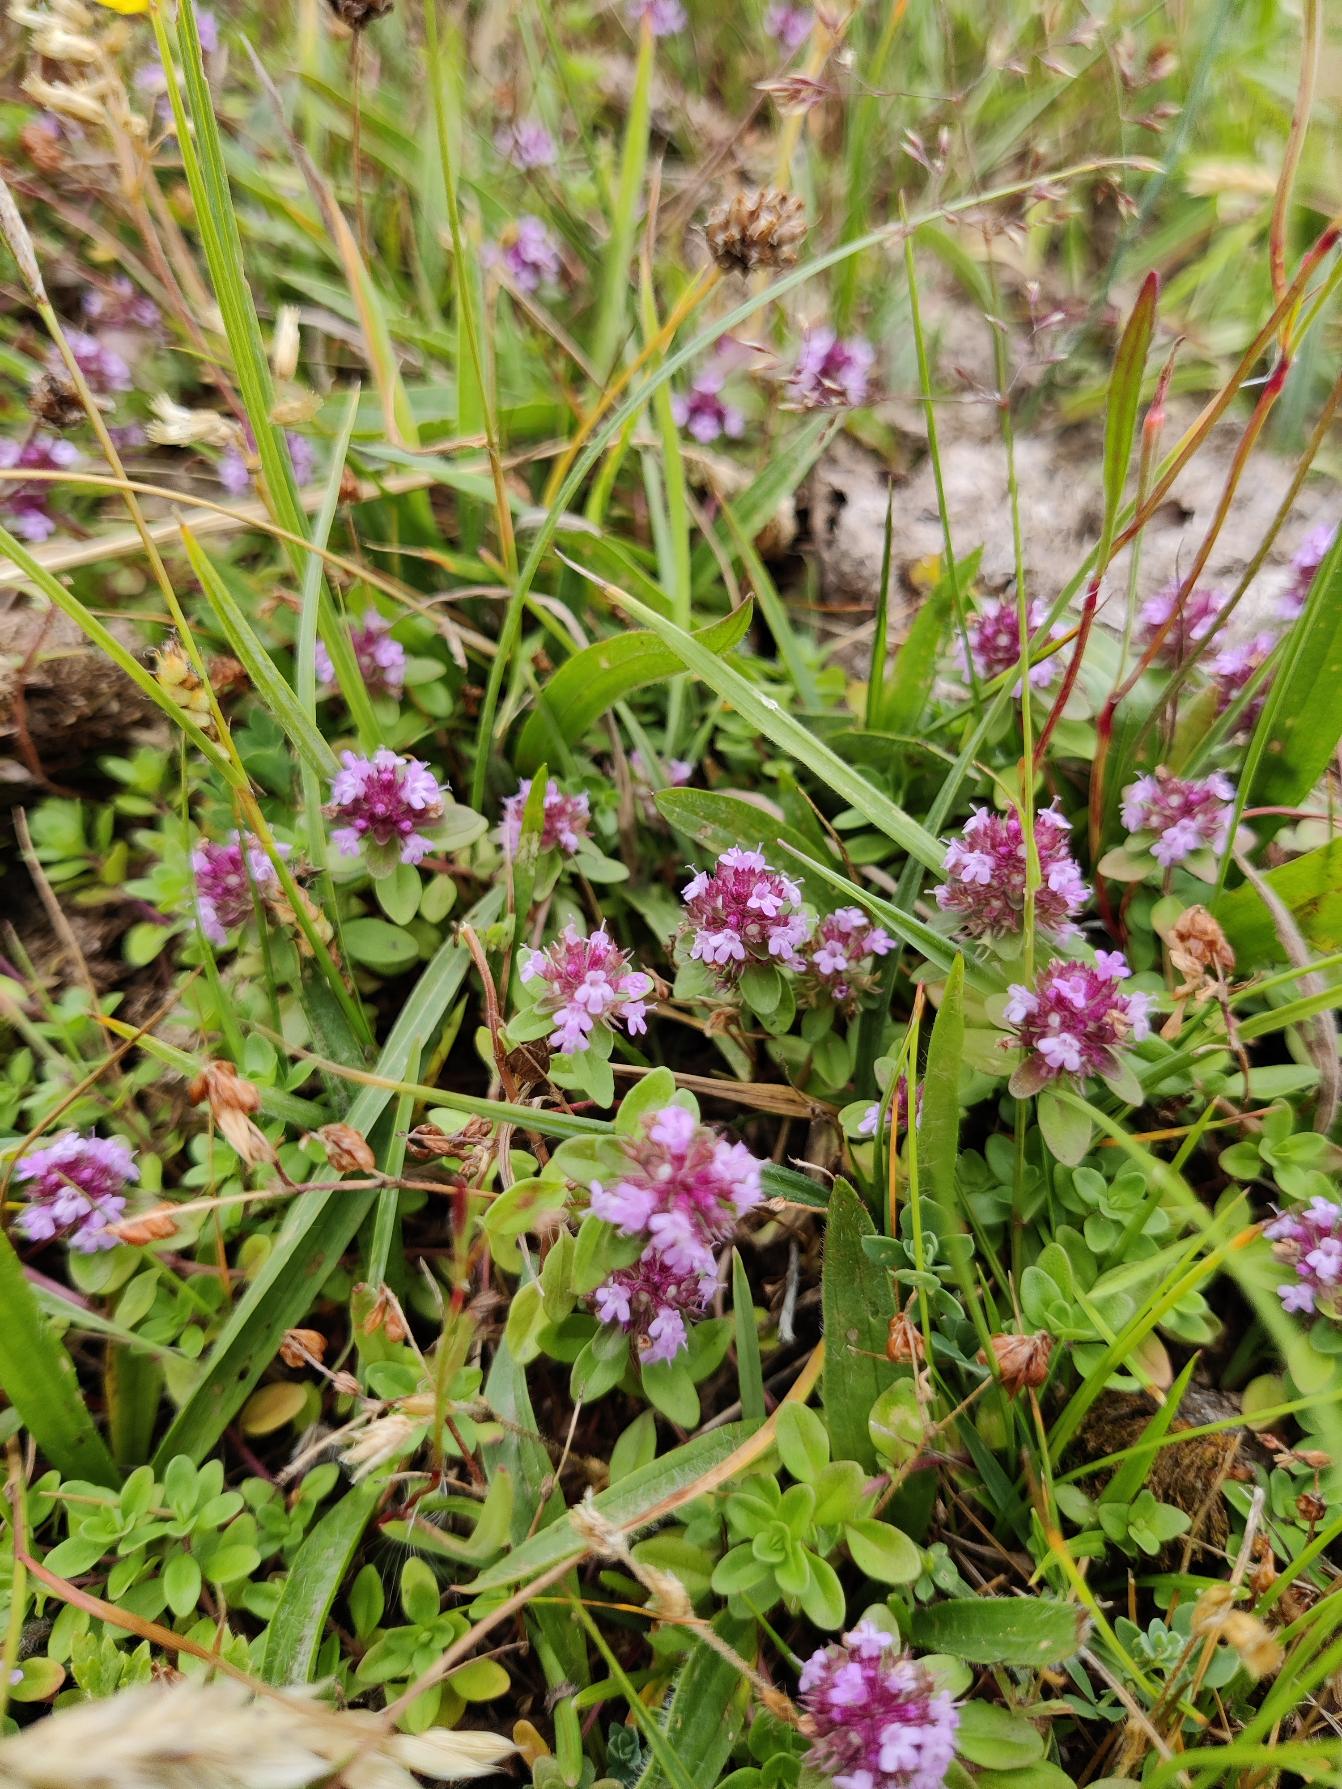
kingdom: Plantae
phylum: Tracheophyta
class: Magnoliopsida
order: Lamiales
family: Lamiaceae
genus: Thymus
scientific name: Thymus pulegioides
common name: Bredbladet timian
